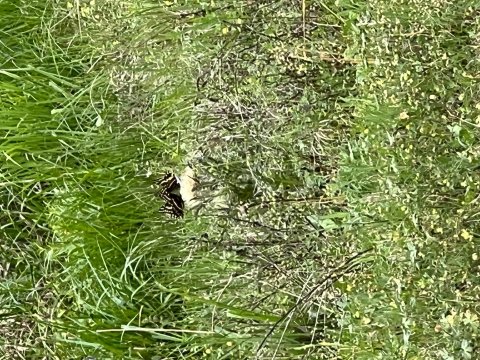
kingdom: Animalia
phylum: Arthropoda
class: Insecta
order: Lepidoptera
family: Papilionidae
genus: Pterourus
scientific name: Pterourus palamedes
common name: Palamedes Swallowtail
